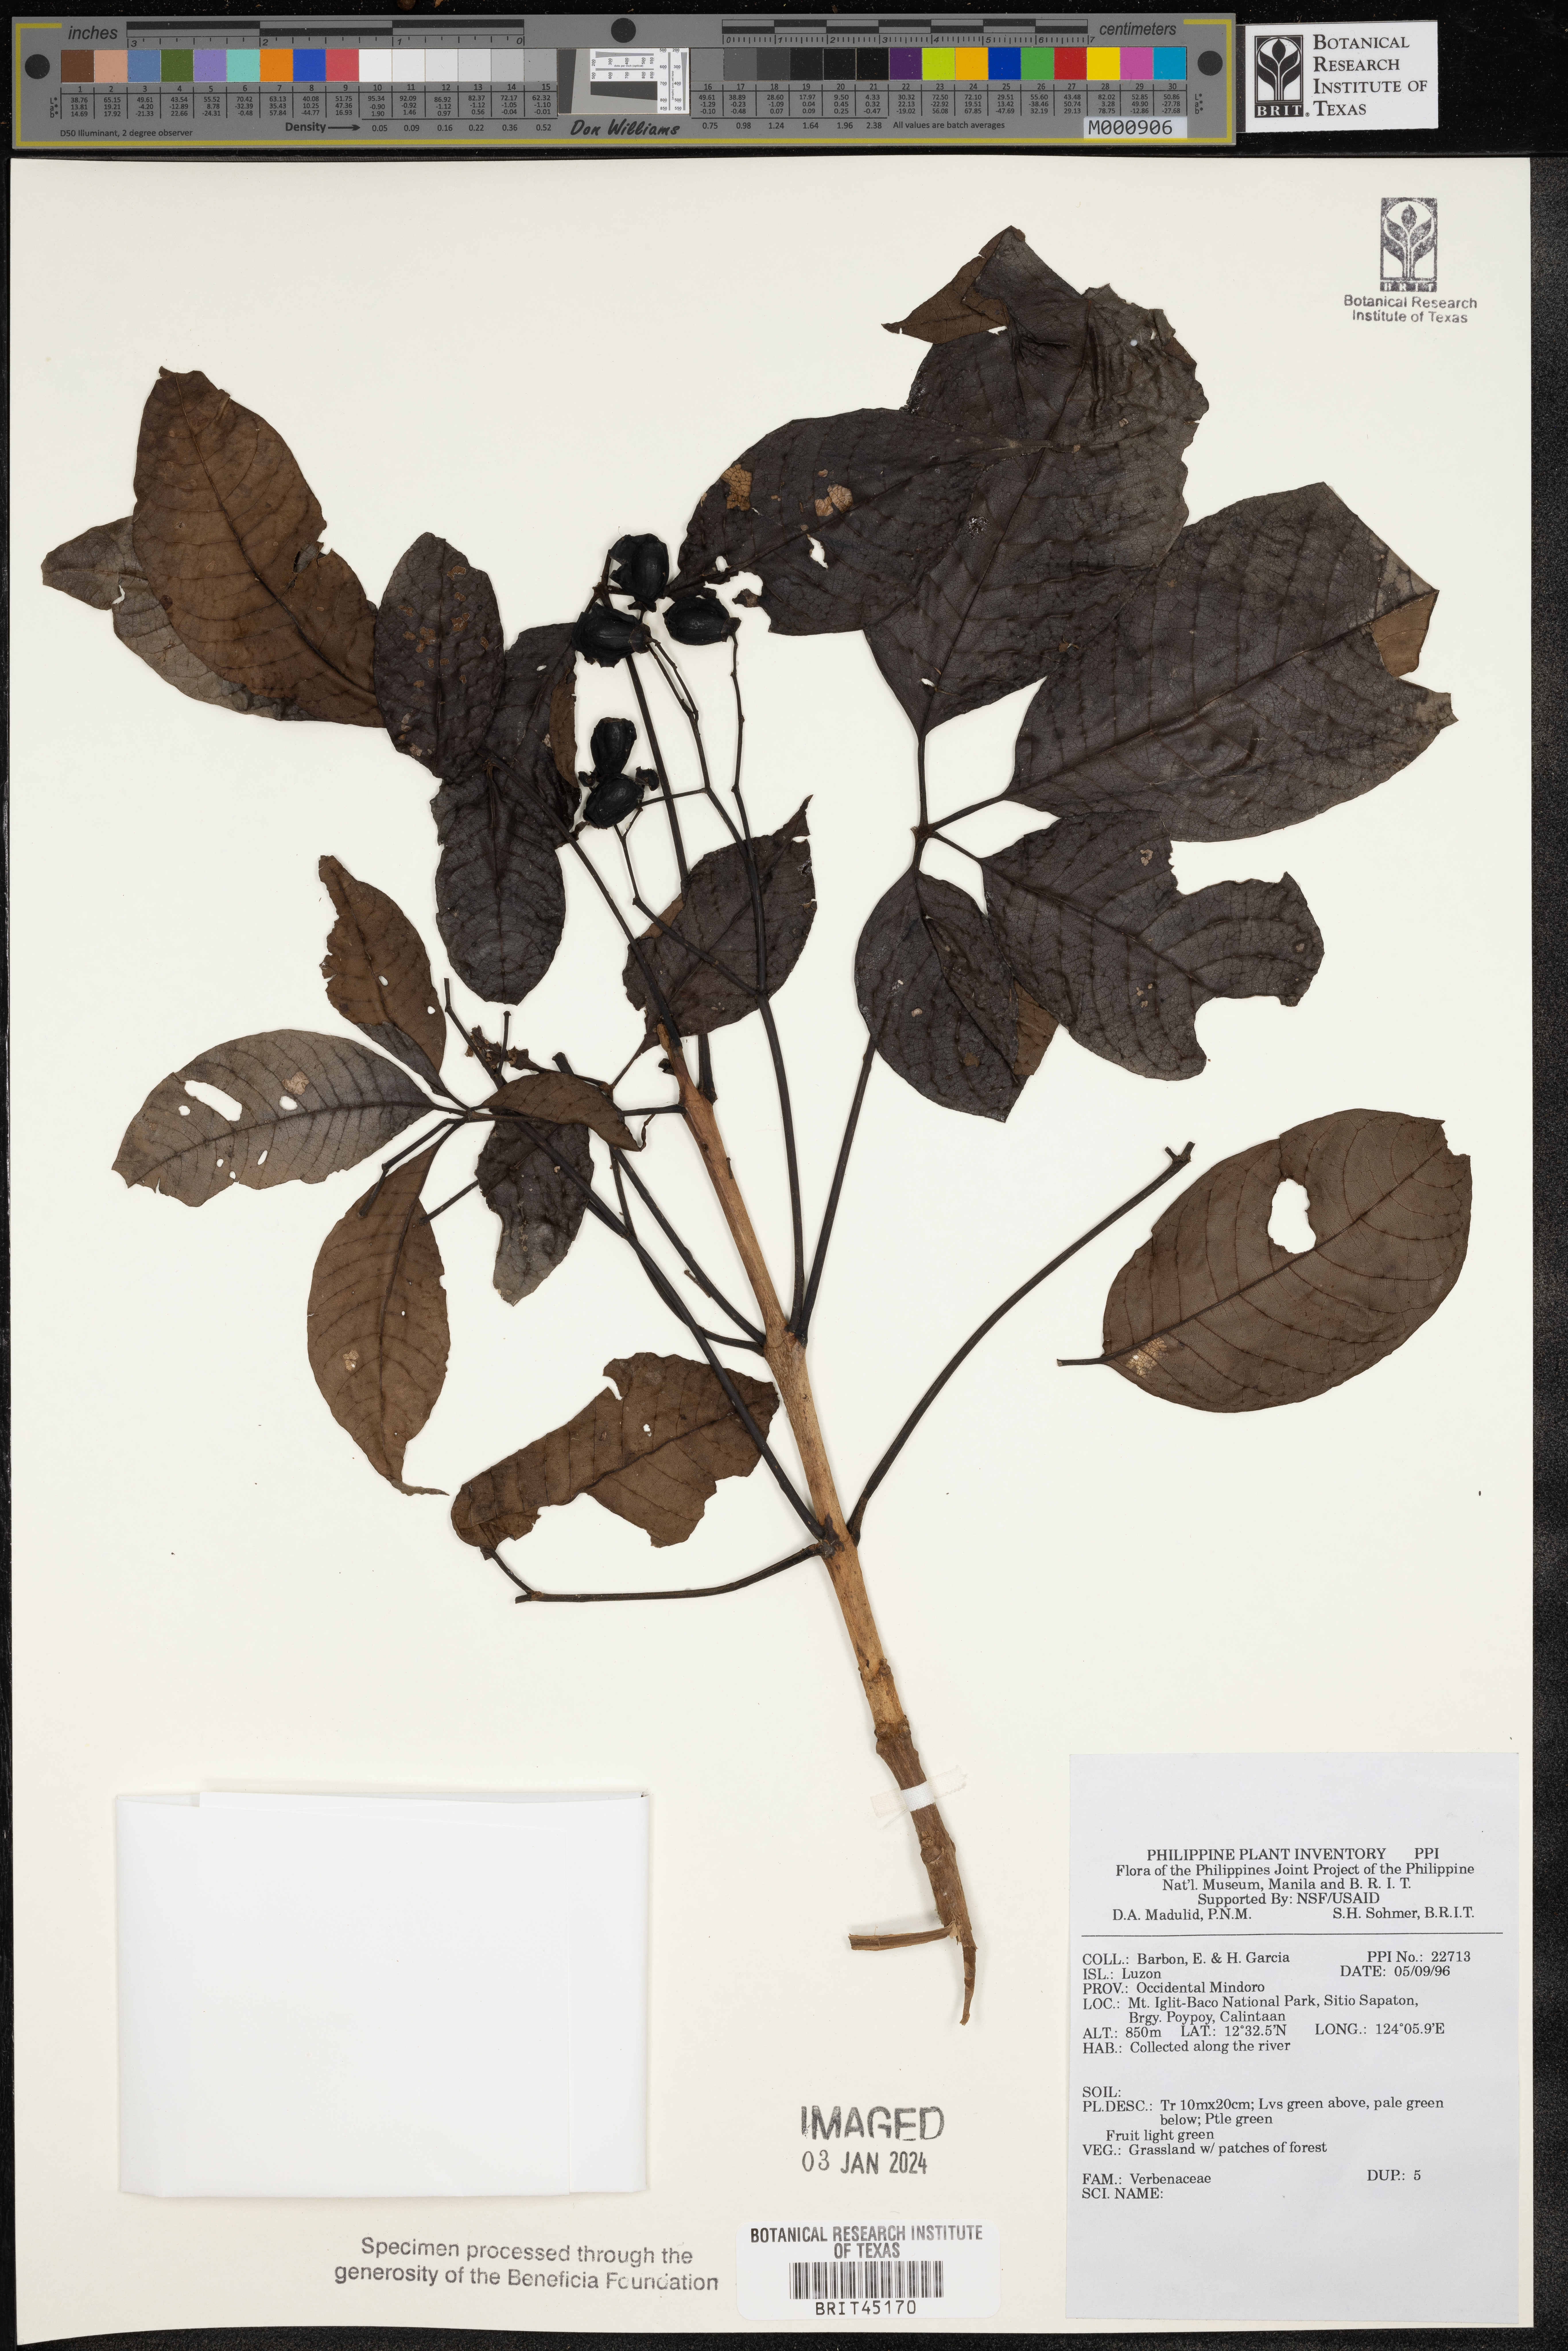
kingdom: Plantae
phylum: Tracheophyta
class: Magnoliopsida
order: Lamiales
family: Verbenaceae
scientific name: Verbenaceae
